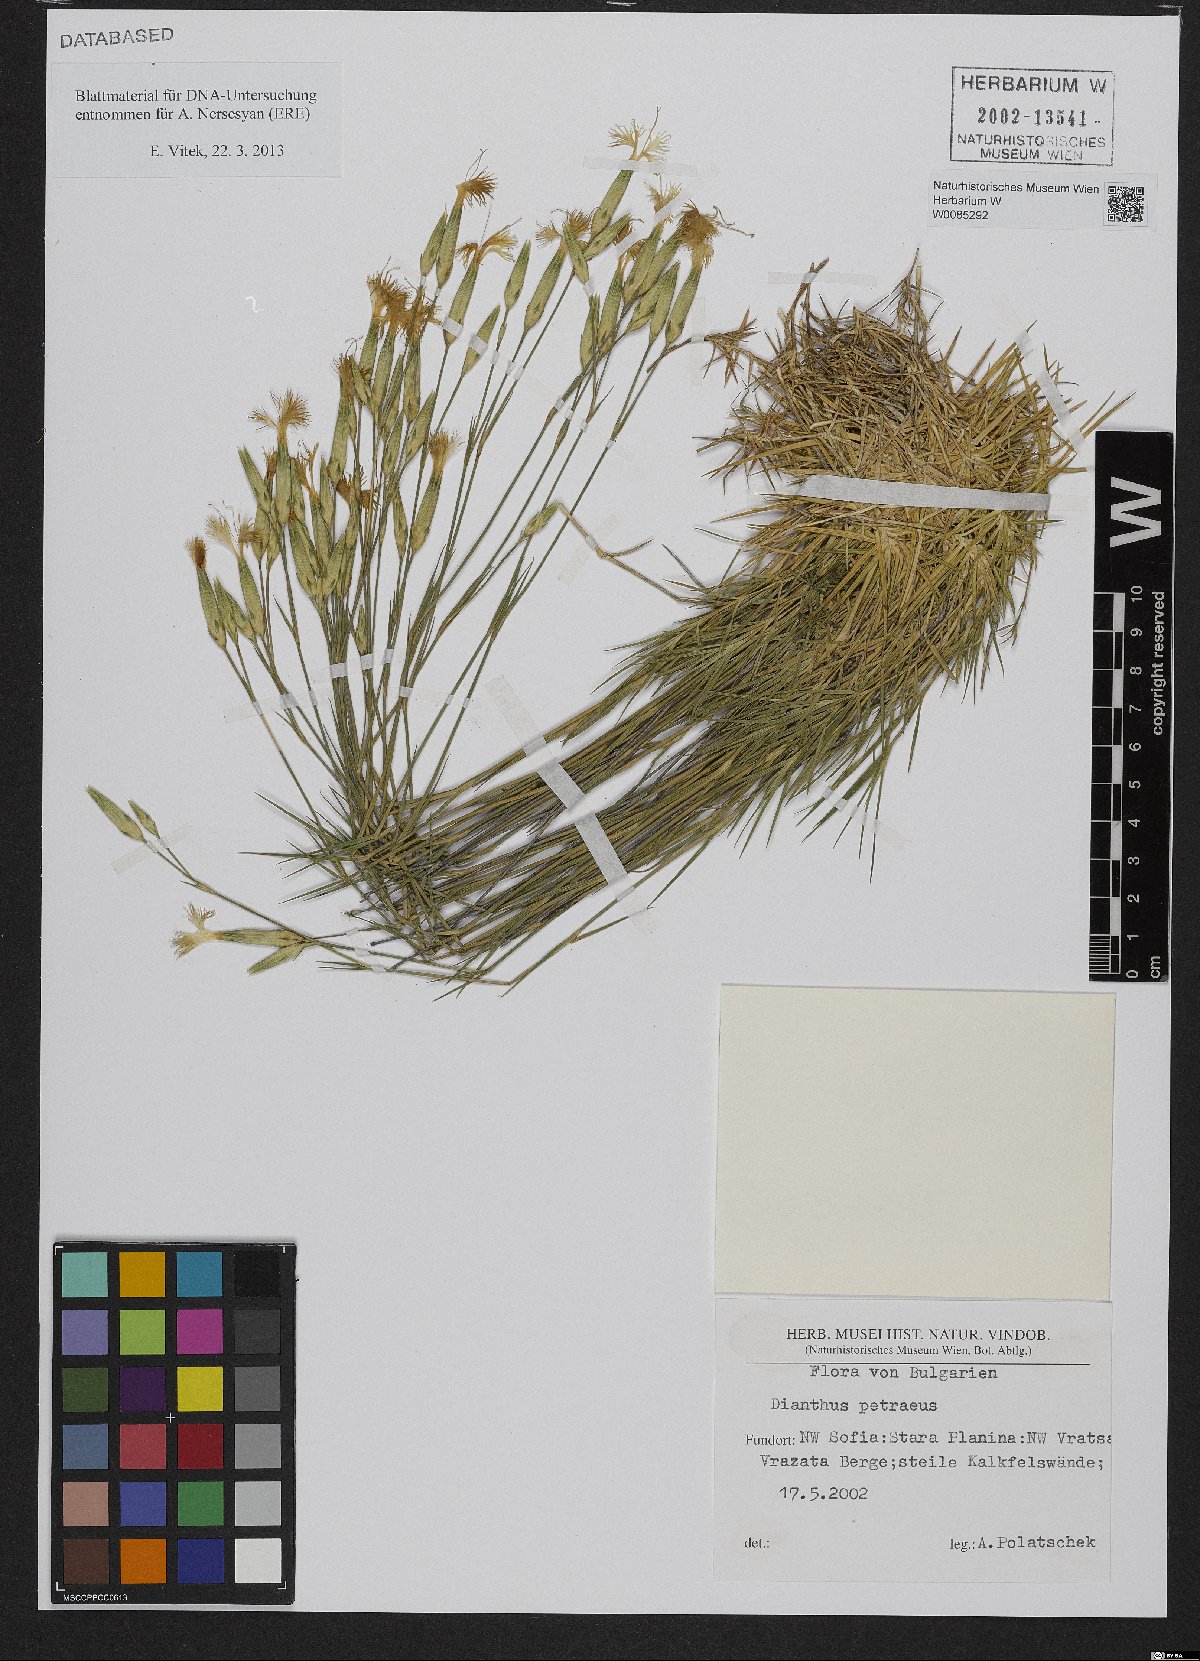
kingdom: Plantae
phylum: Tracheophyta
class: Magnoliopsida
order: Caryophyllales
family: Caryophyllaceae
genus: Dianthus
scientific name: Dianthus petraeus
